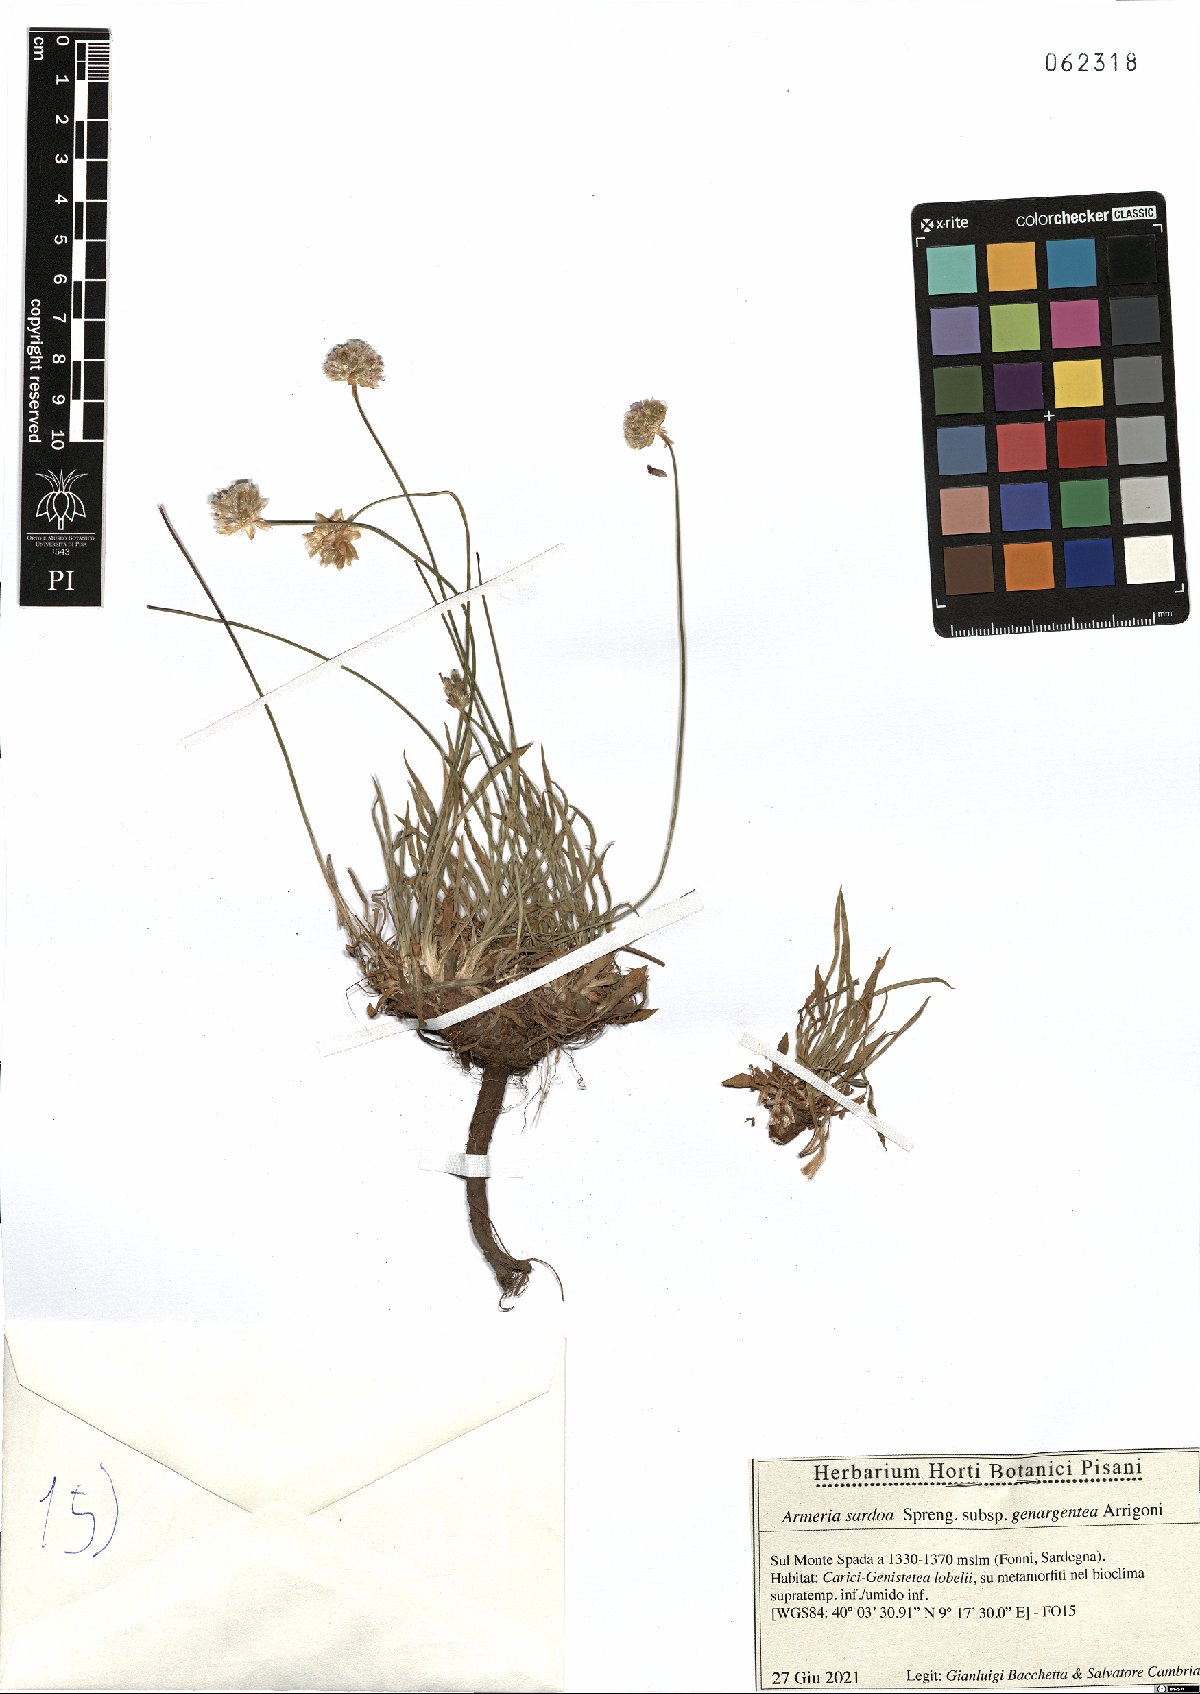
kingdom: Plantae
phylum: Tracheophyta
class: Magnoliopsida
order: Caryophyllales
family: Plumbaginaceae
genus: Armeria
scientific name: Armeria sardoa
